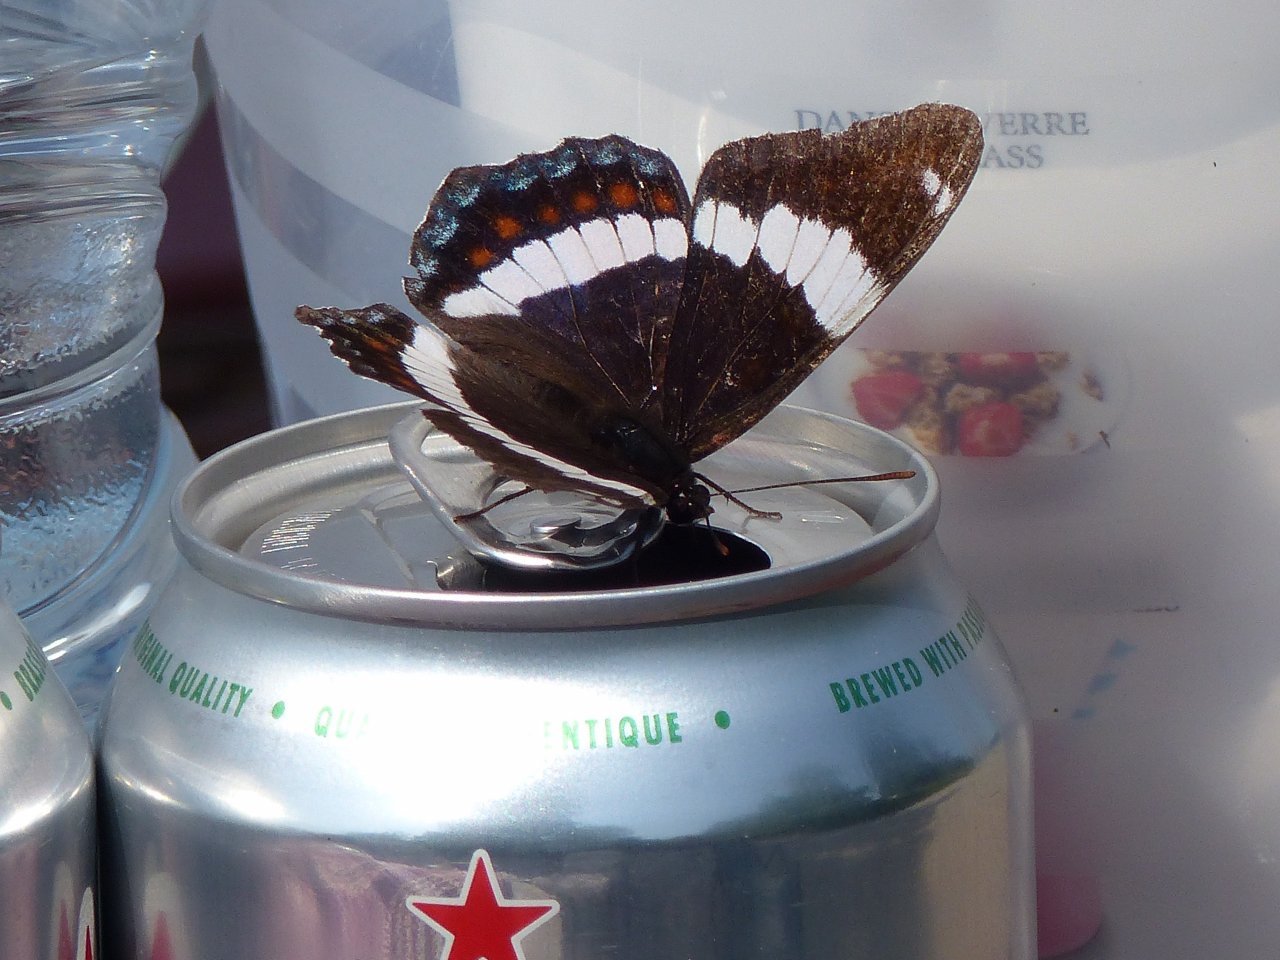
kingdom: Animalia
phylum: Arthropoda
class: Insecta
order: Lepidoptera
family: Nymphalidae
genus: Limenitis
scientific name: Limenitis arthemis
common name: Red-spotted Admiral
